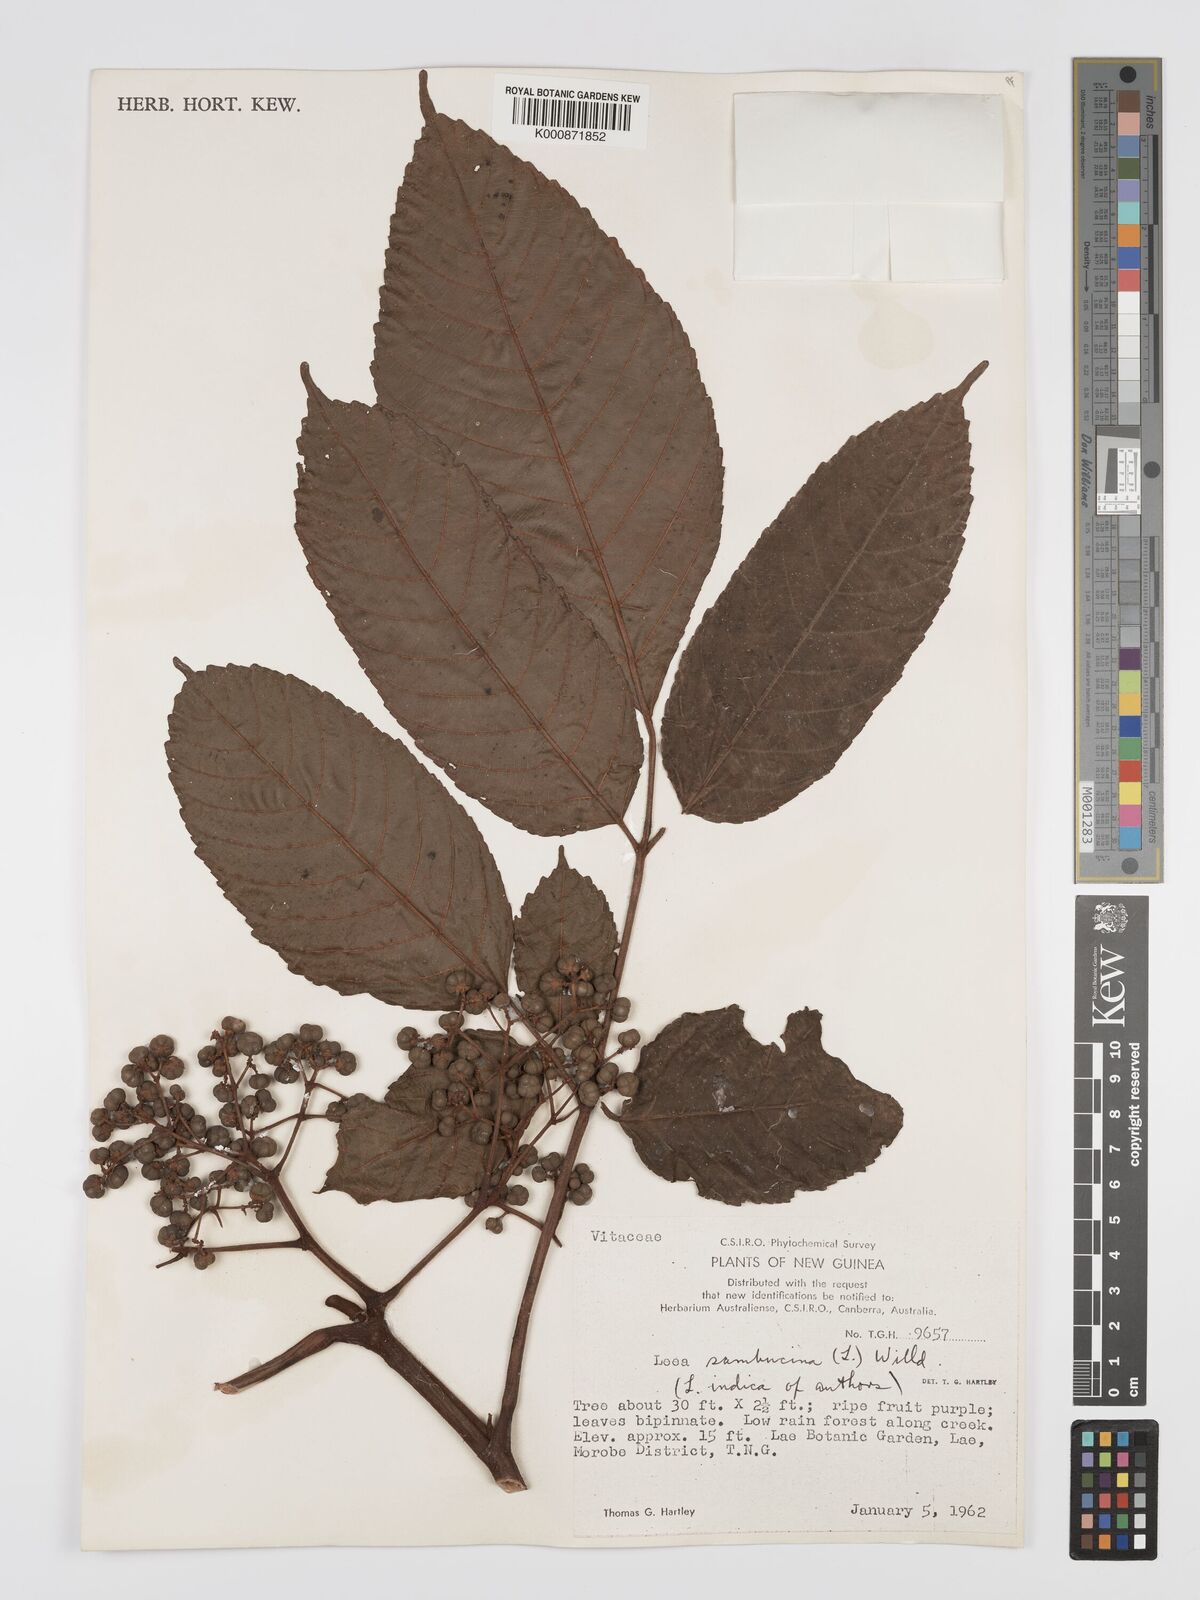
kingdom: Plantae
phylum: Tracheophyta
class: Magnoliopsida
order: Vitales
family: Vitaceae
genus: Leea
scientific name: Leea indica
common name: Bandicoot-berry
